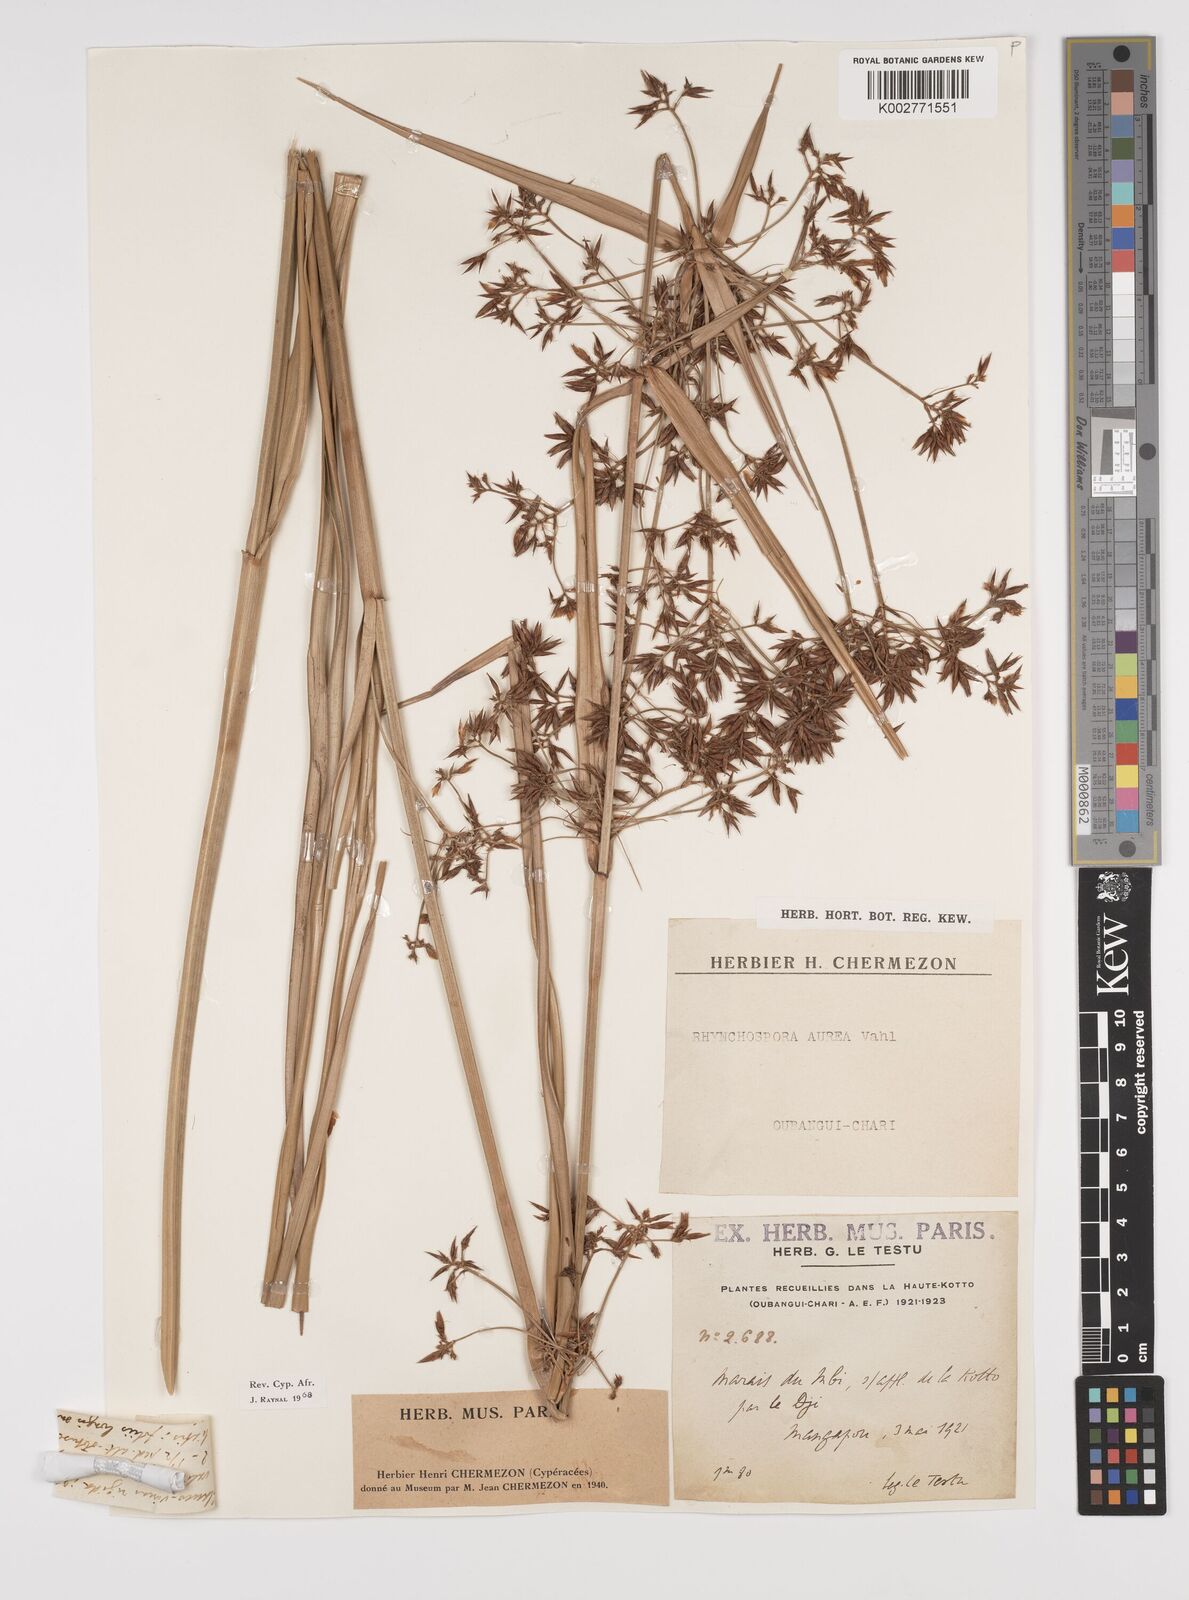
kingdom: Plantae
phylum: Tracheophyta
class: Liliopsida
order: Poales
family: Cyperaceae
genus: Rhynchospora
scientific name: Rhynchospora corymbosa
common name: Golden beak sedge
